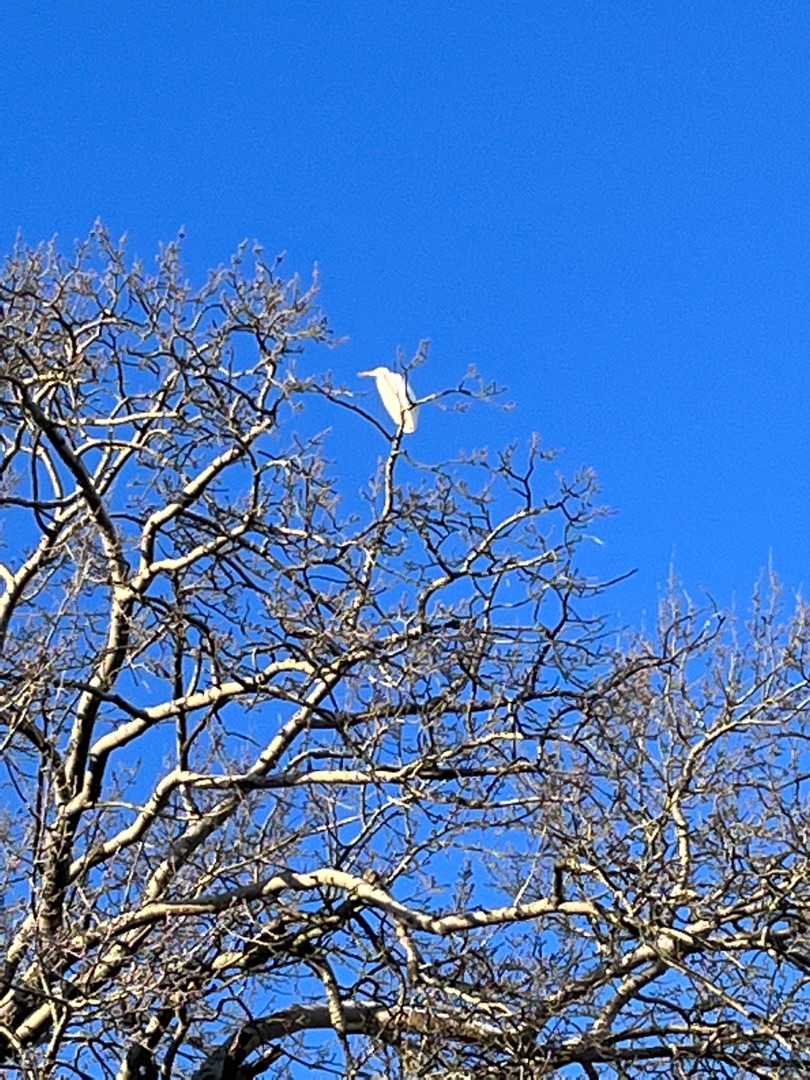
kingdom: Animalia
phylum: Chordata
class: Aves
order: Pelecaniformes
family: Ardeidae
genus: Ardea
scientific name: Ardea alba
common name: Sølvhejre
